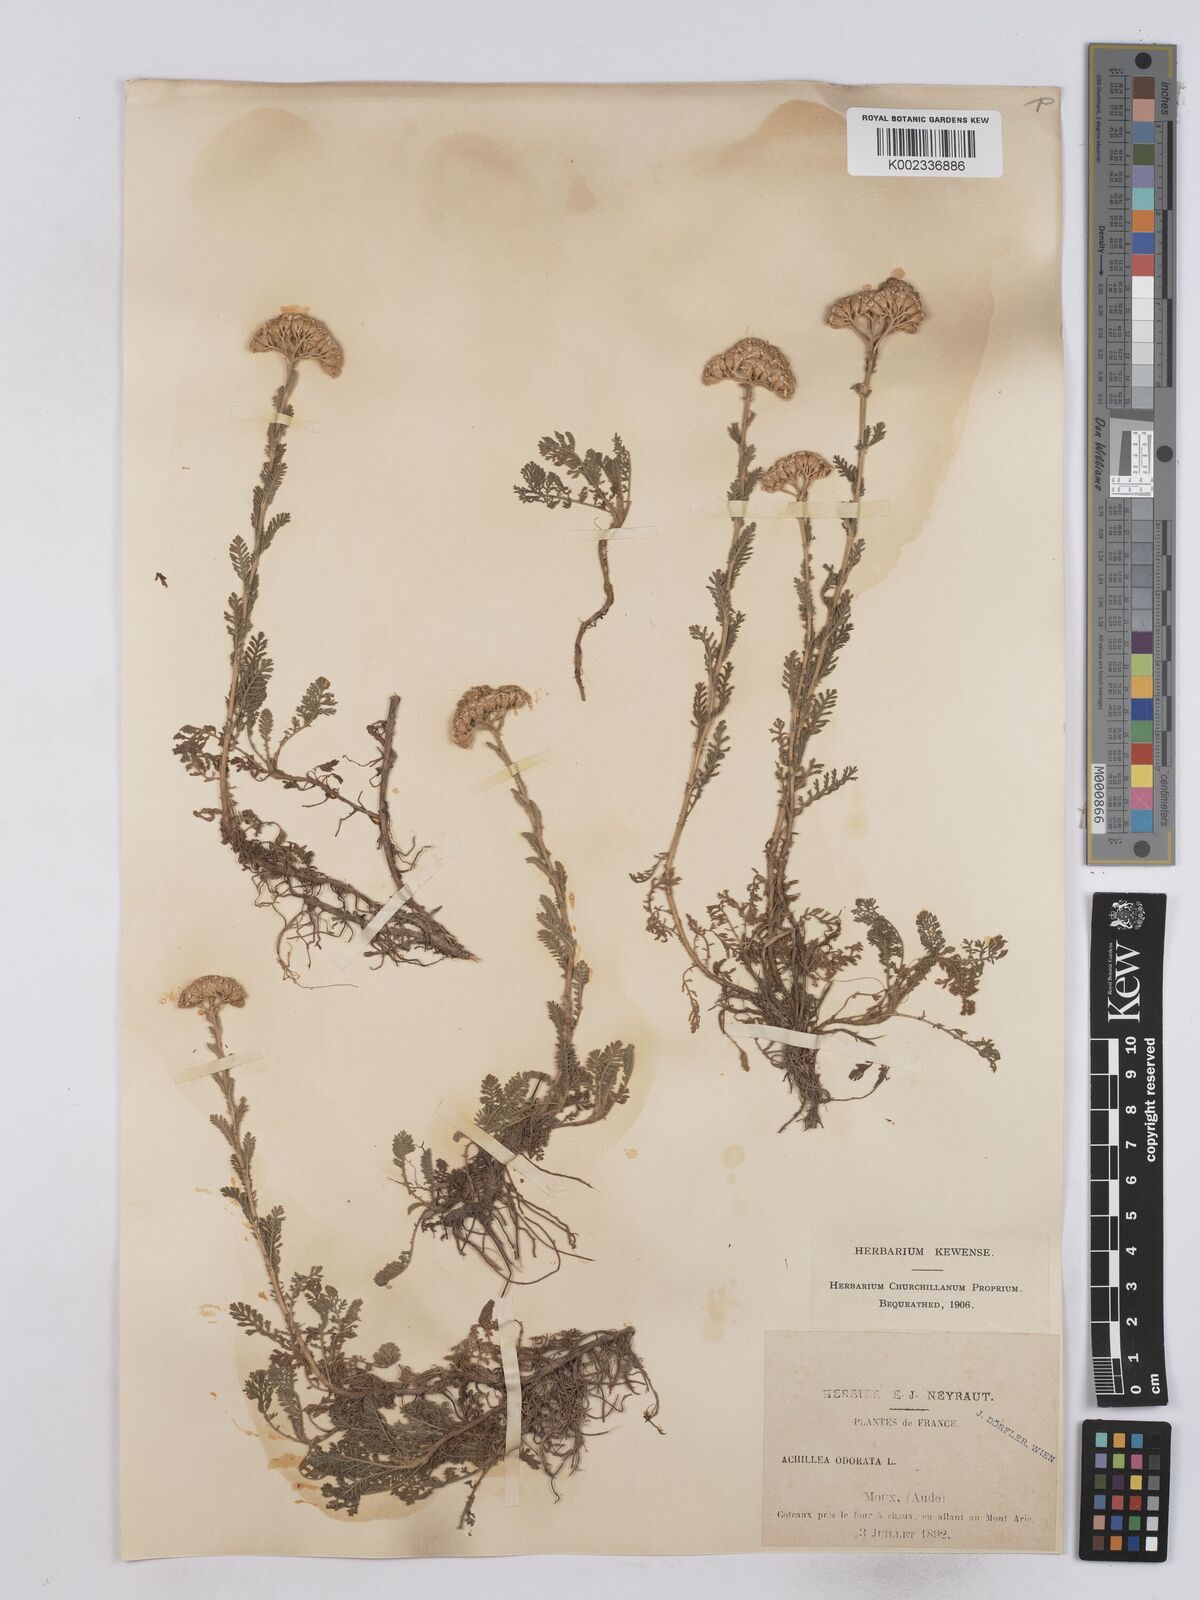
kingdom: Plantae
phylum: Tracheophyta
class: Magnoliopsida
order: Asterales
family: Asteraceae
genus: Achillea
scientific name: Achillea odorata
